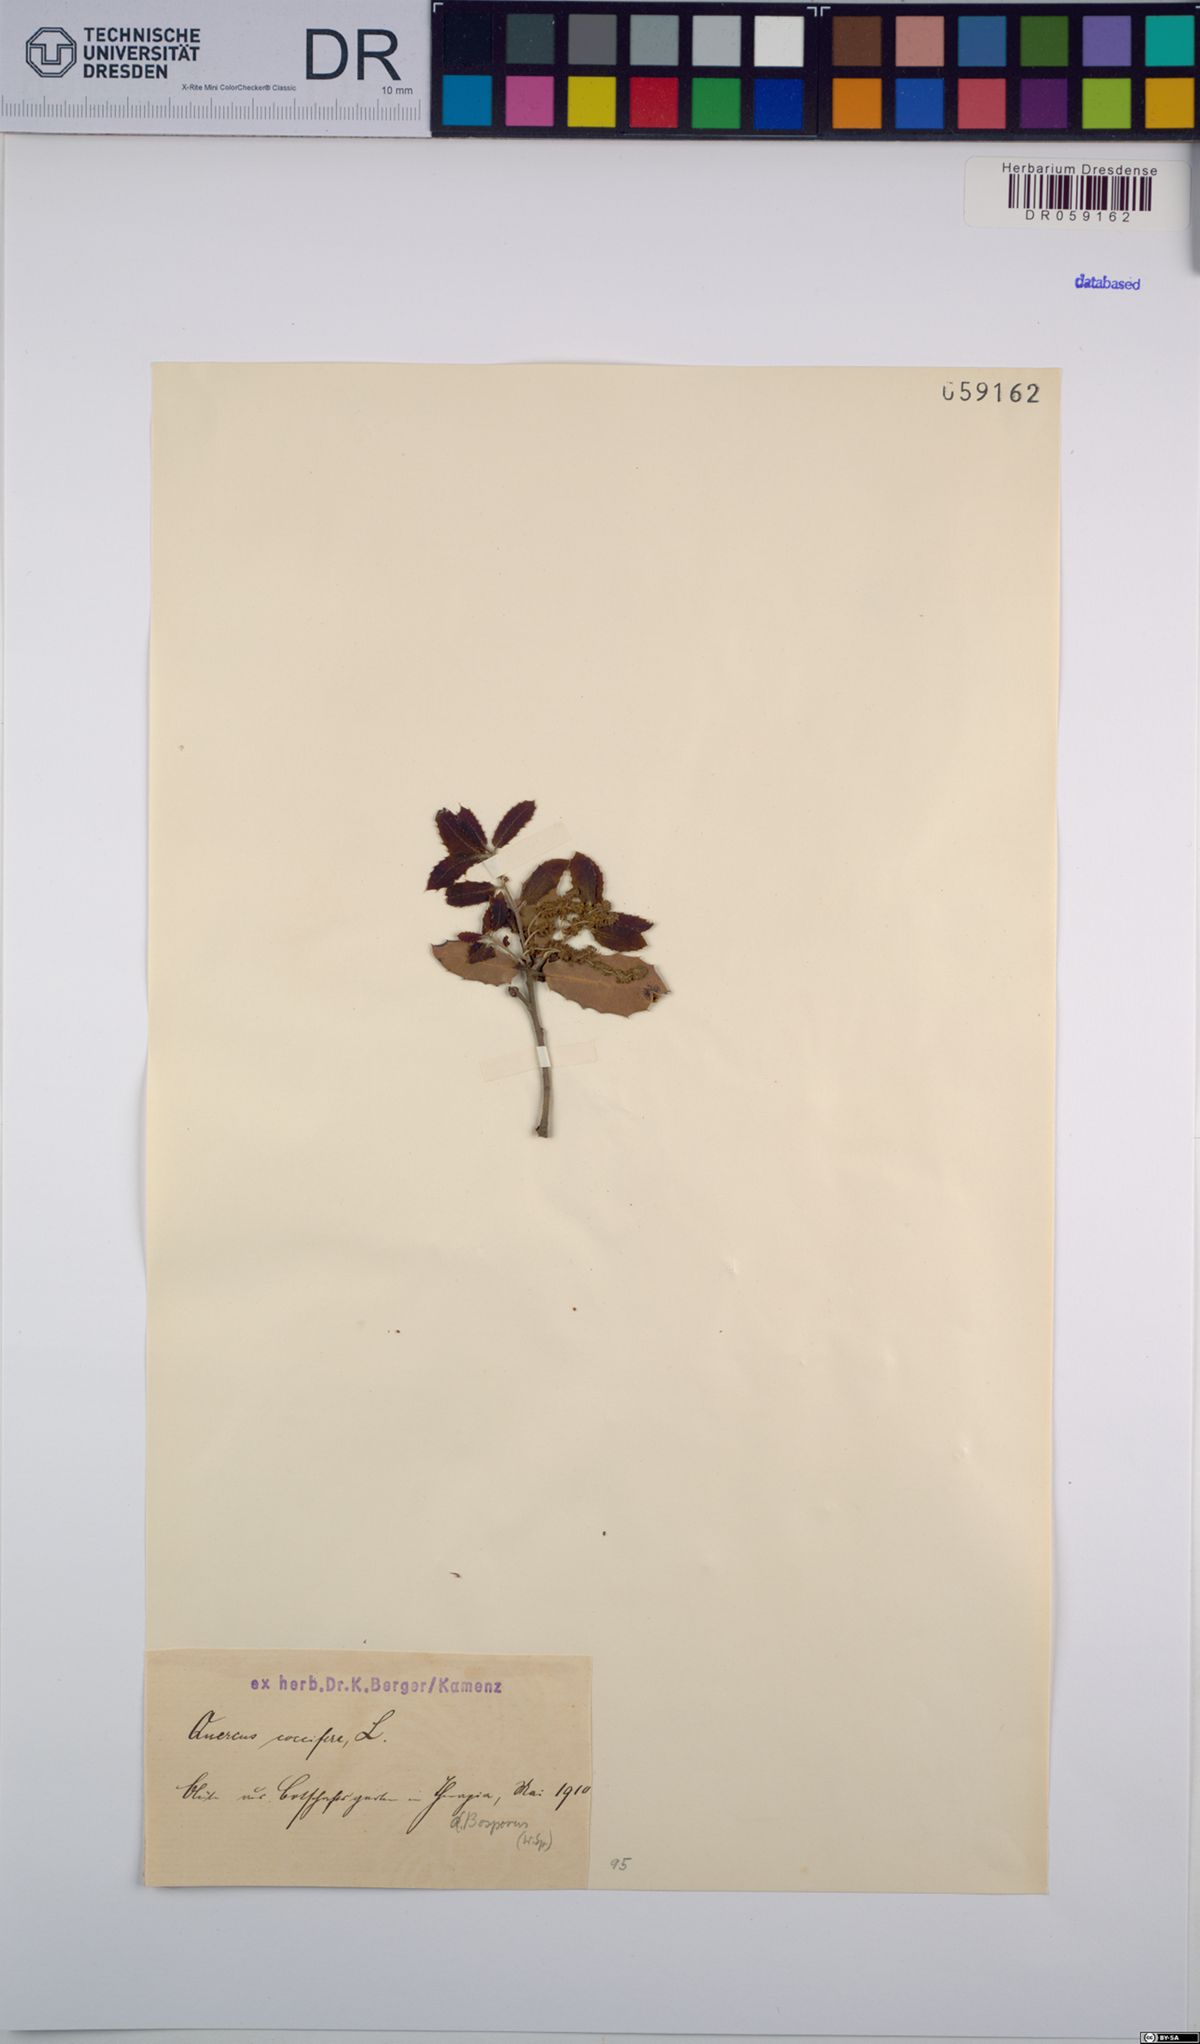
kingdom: Plantae
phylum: Tracheophyta
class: Magnoliopsida
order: Fagales
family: Fagaceae
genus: Quercus
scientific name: Quercus coccifera
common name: Kermes oak
